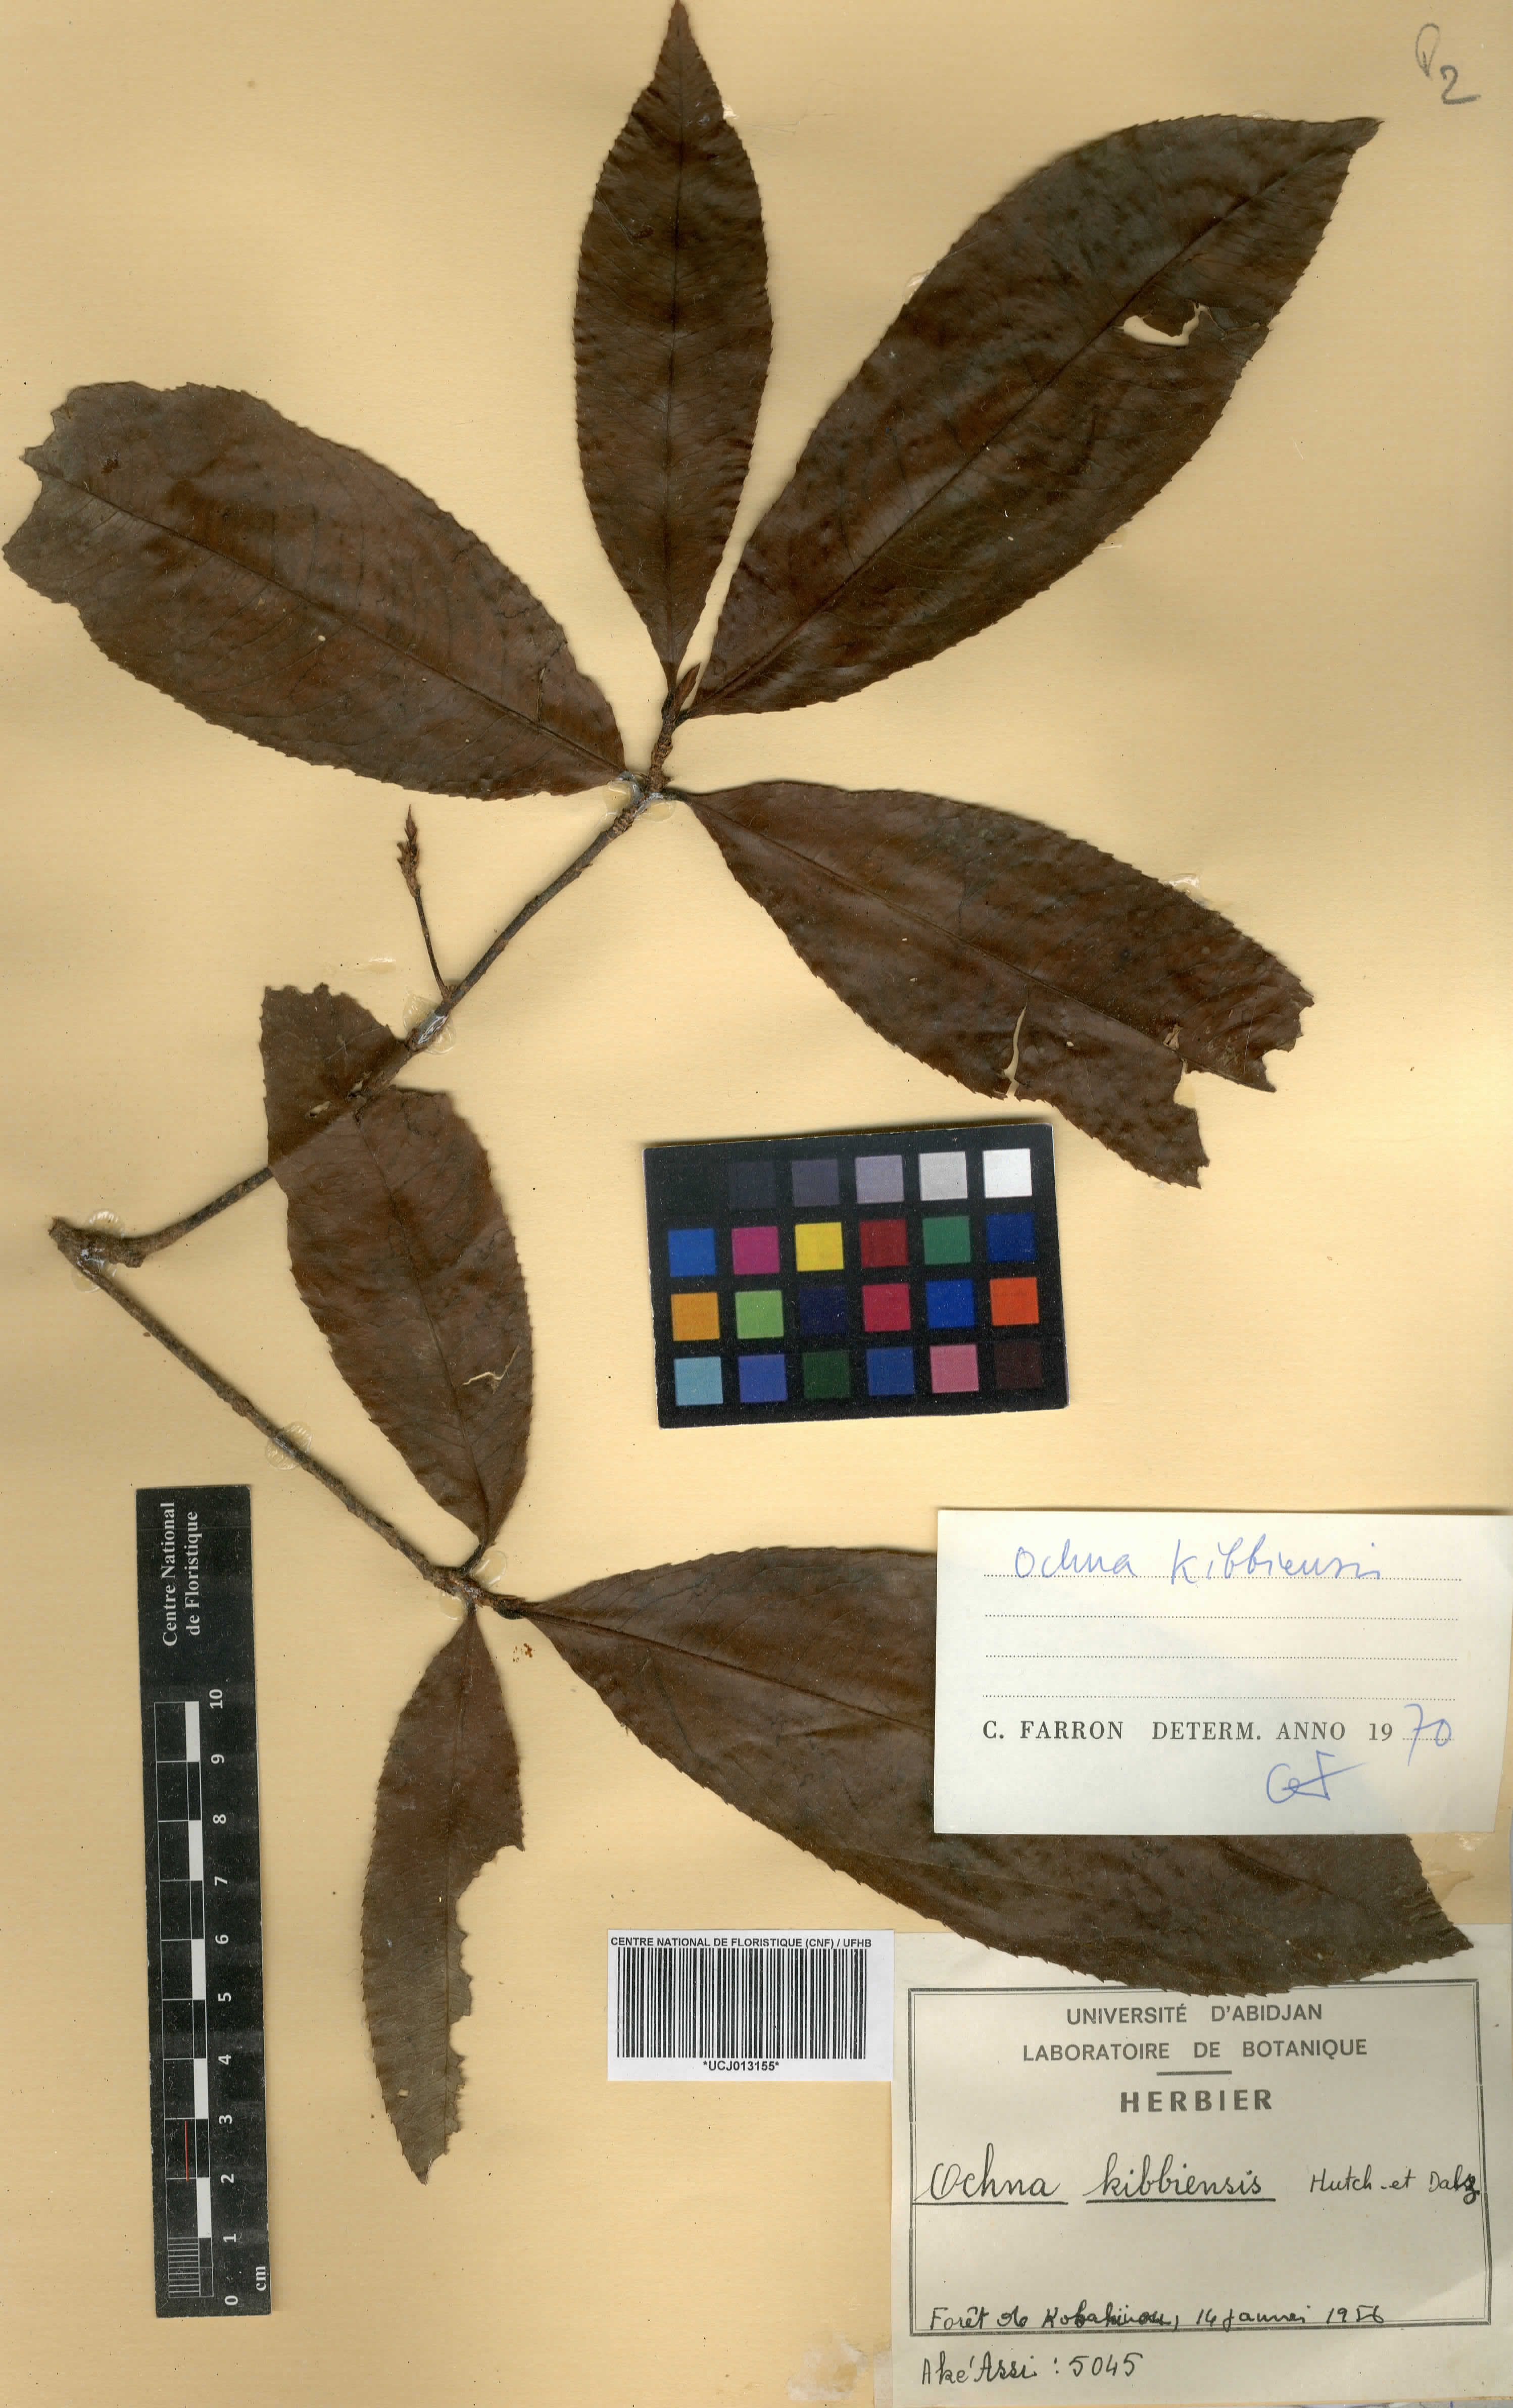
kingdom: Plantae
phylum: Tracheophyta
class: Magnoliopsida
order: Malpighiales
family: Ochnaceae
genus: Ochna
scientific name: Ochna kibbiensis
